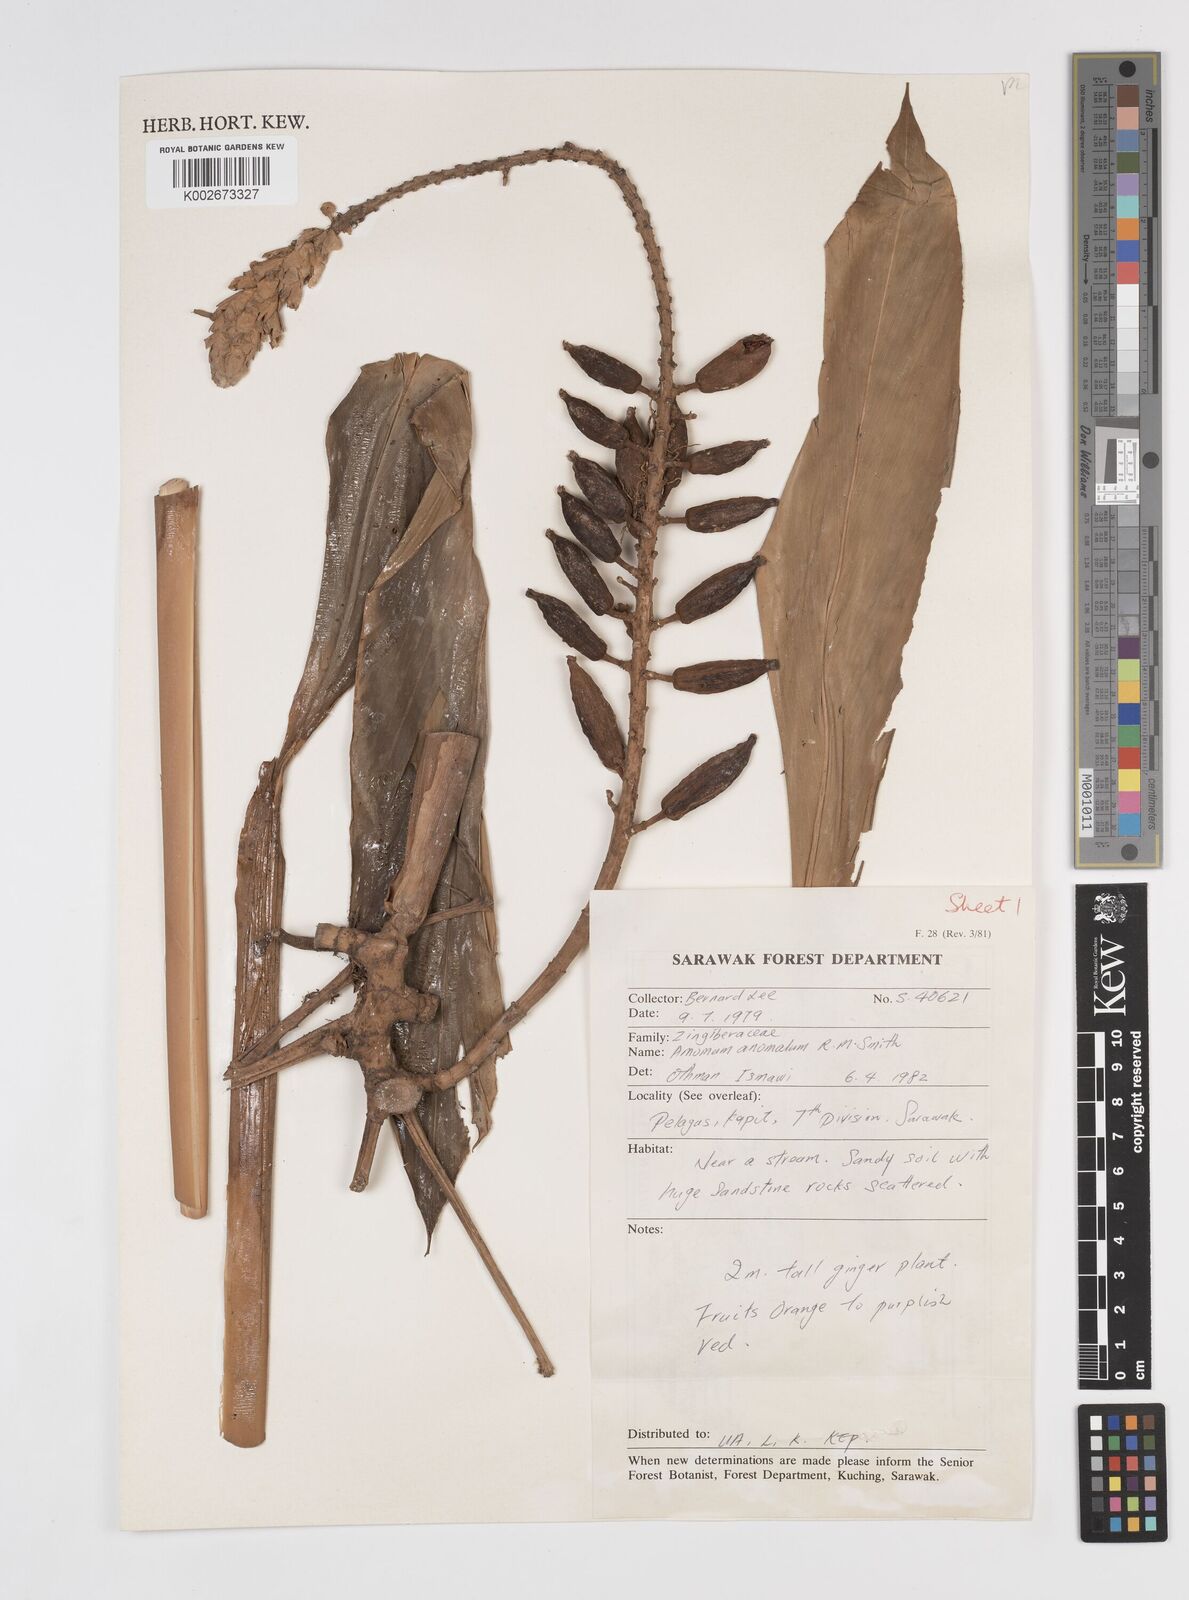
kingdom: Plantae
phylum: Tracheophyta
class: Liliopsida
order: Zingiberales
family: Zingiberaceae
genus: Sulettaria
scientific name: Sulettaria anomala
